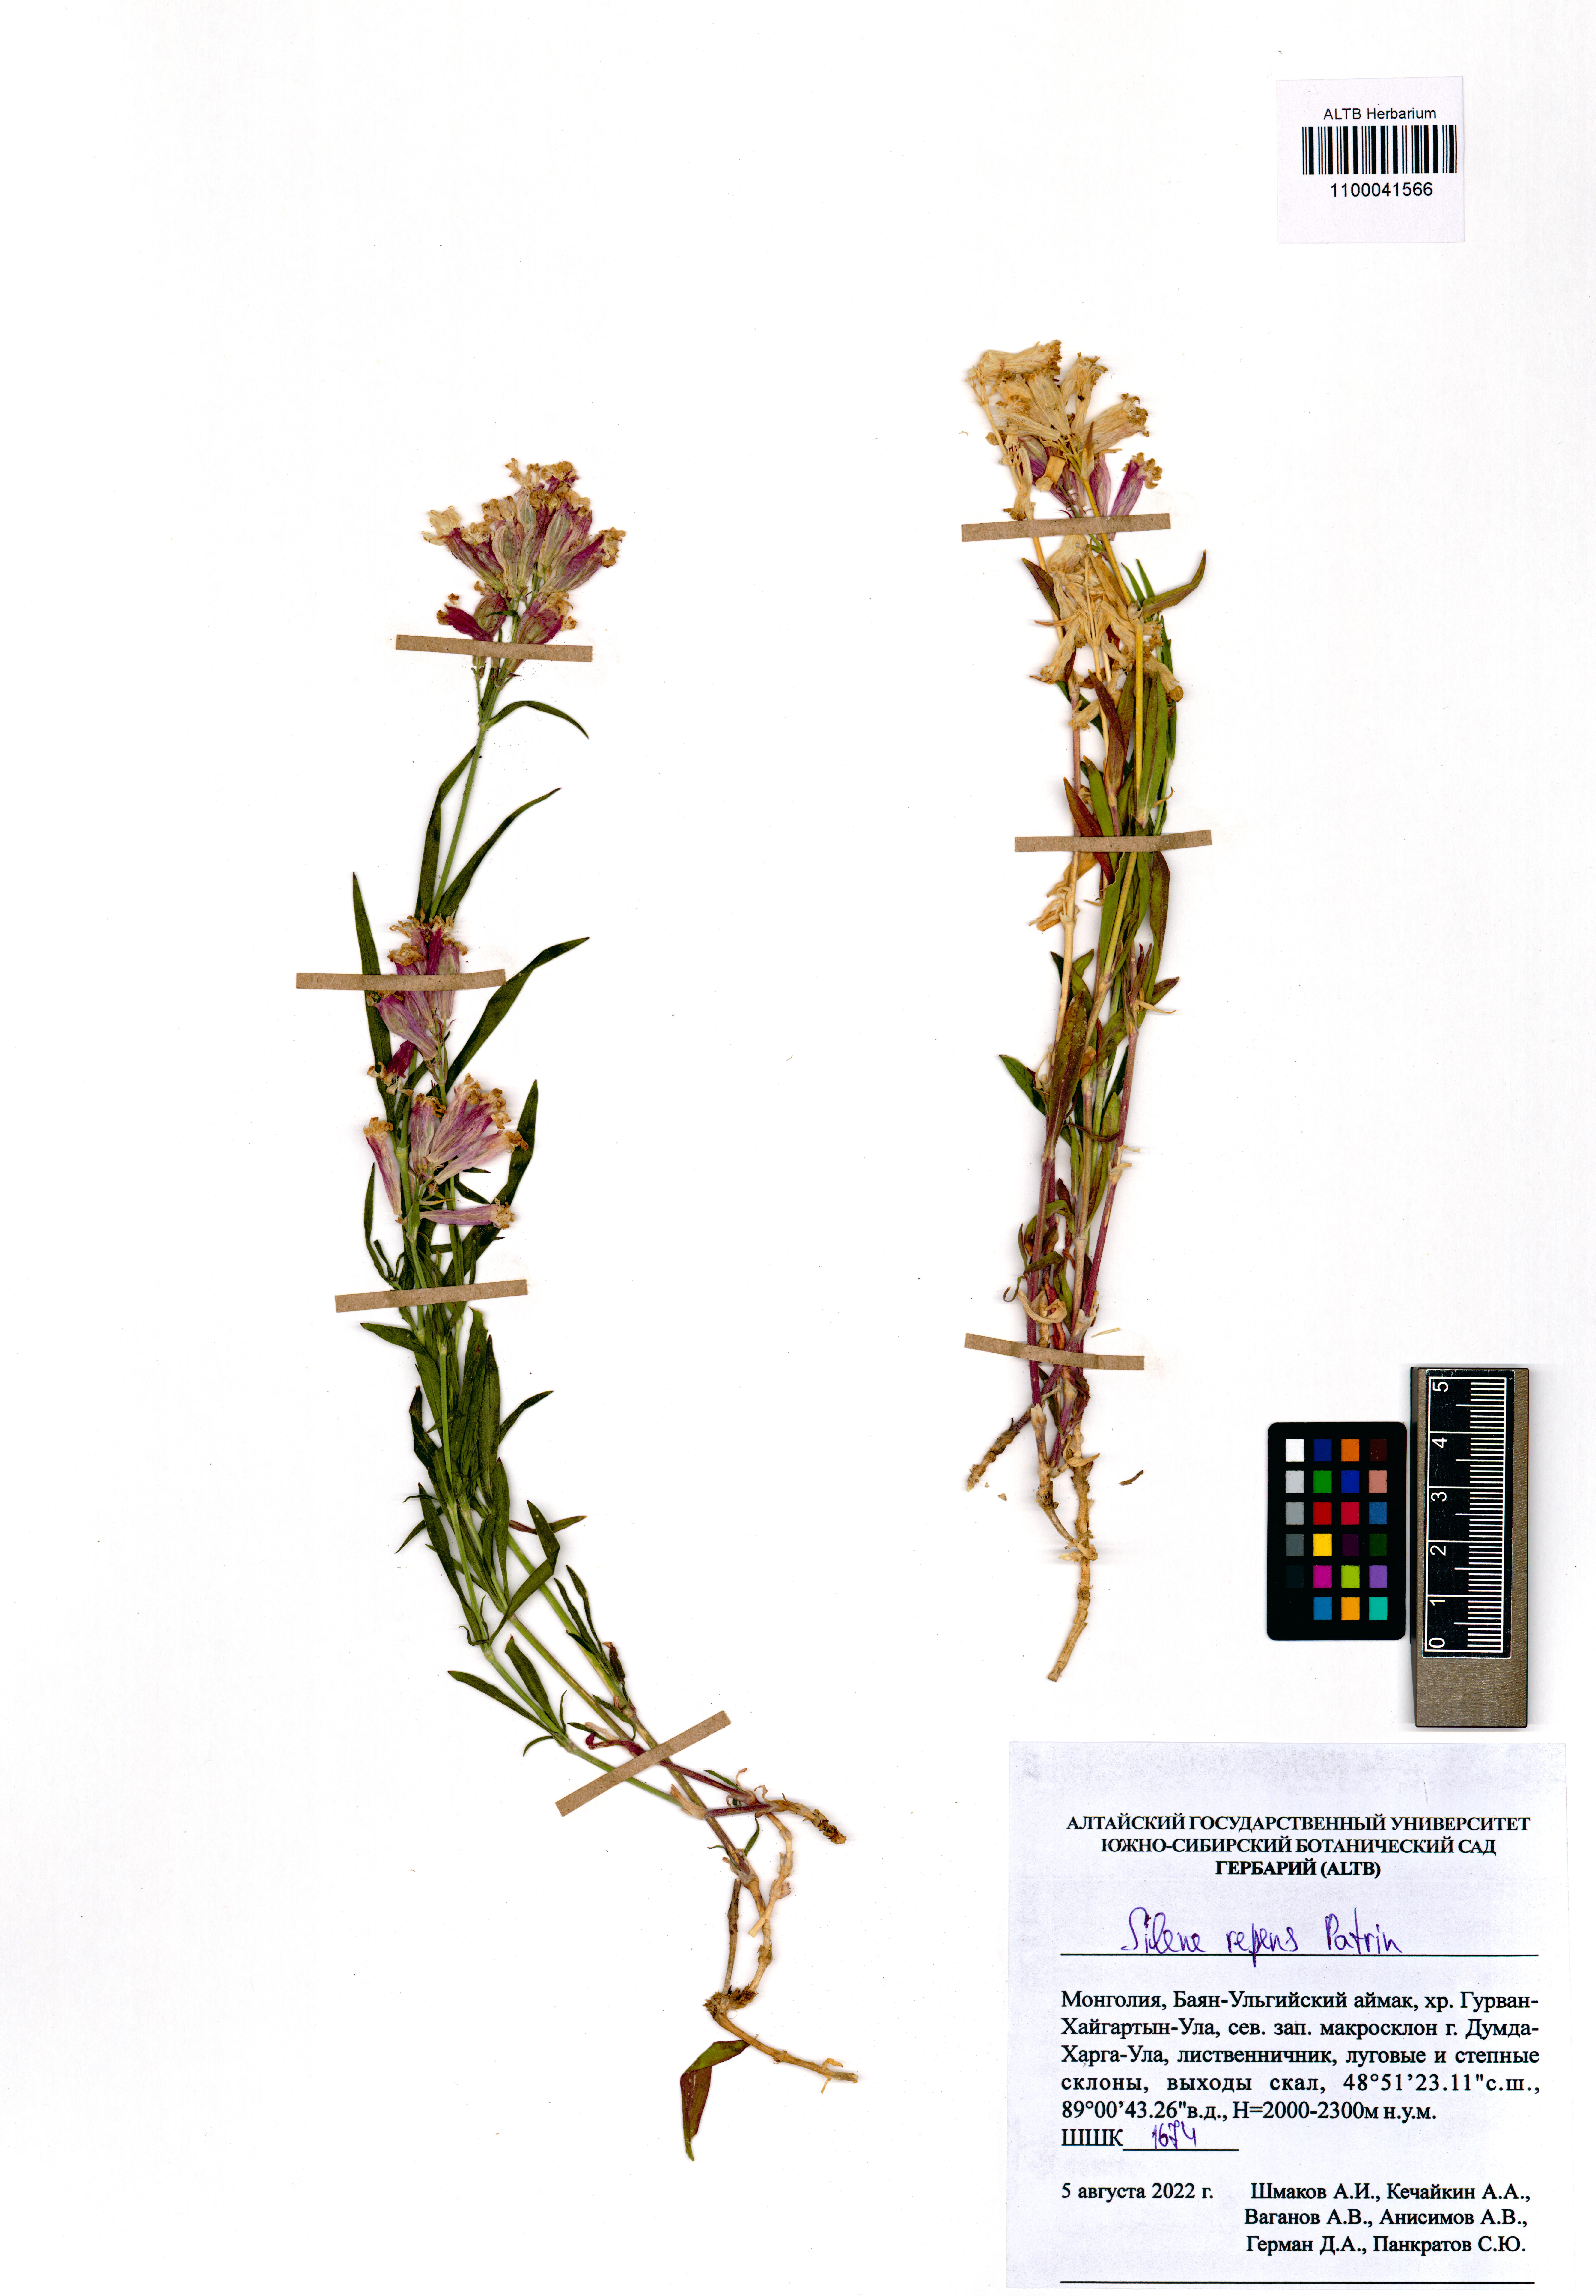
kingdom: Plantae
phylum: Tracheophyta
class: Magnoliopsida
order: Caryophyllales
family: Caryophyllaceae
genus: Silene
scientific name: Silene repens
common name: Pink campion
